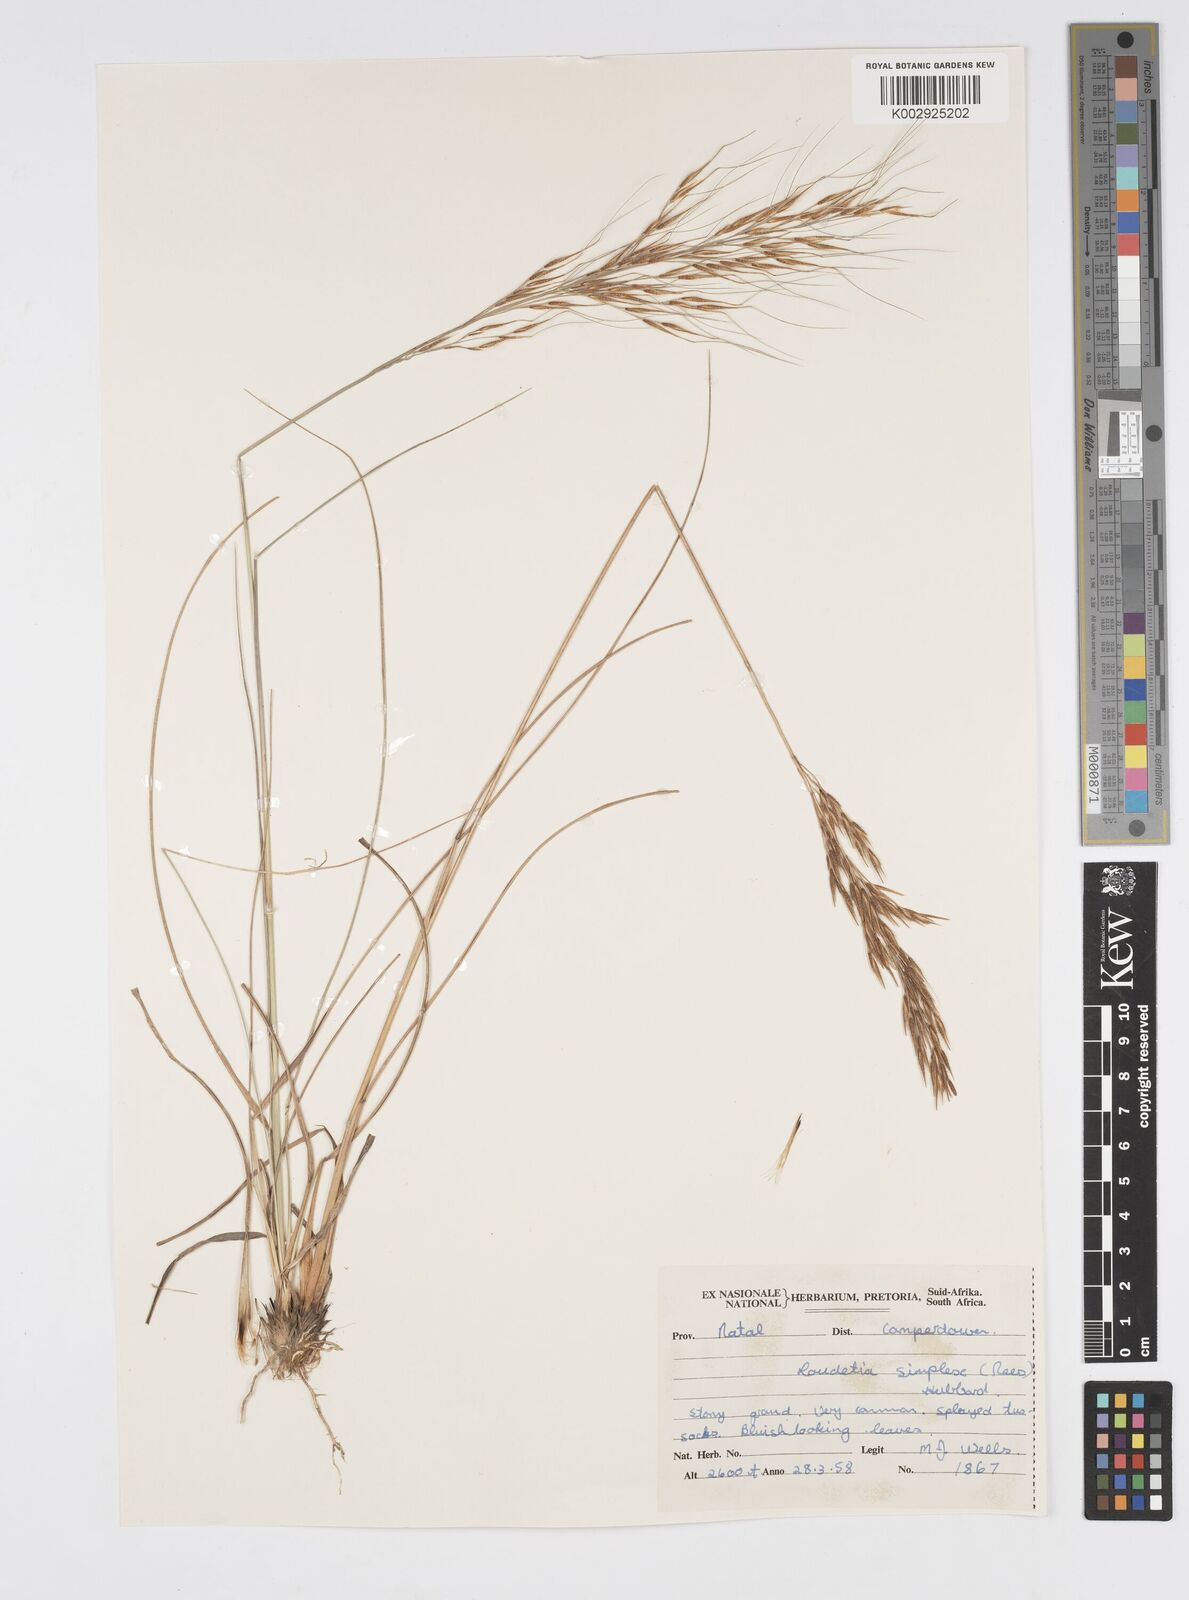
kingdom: Plantae
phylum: Tracheophyta
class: Liliopsida
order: Poales
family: Poaceae
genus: Loudetia
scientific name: Loudetia simplex
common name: Common russet grass
